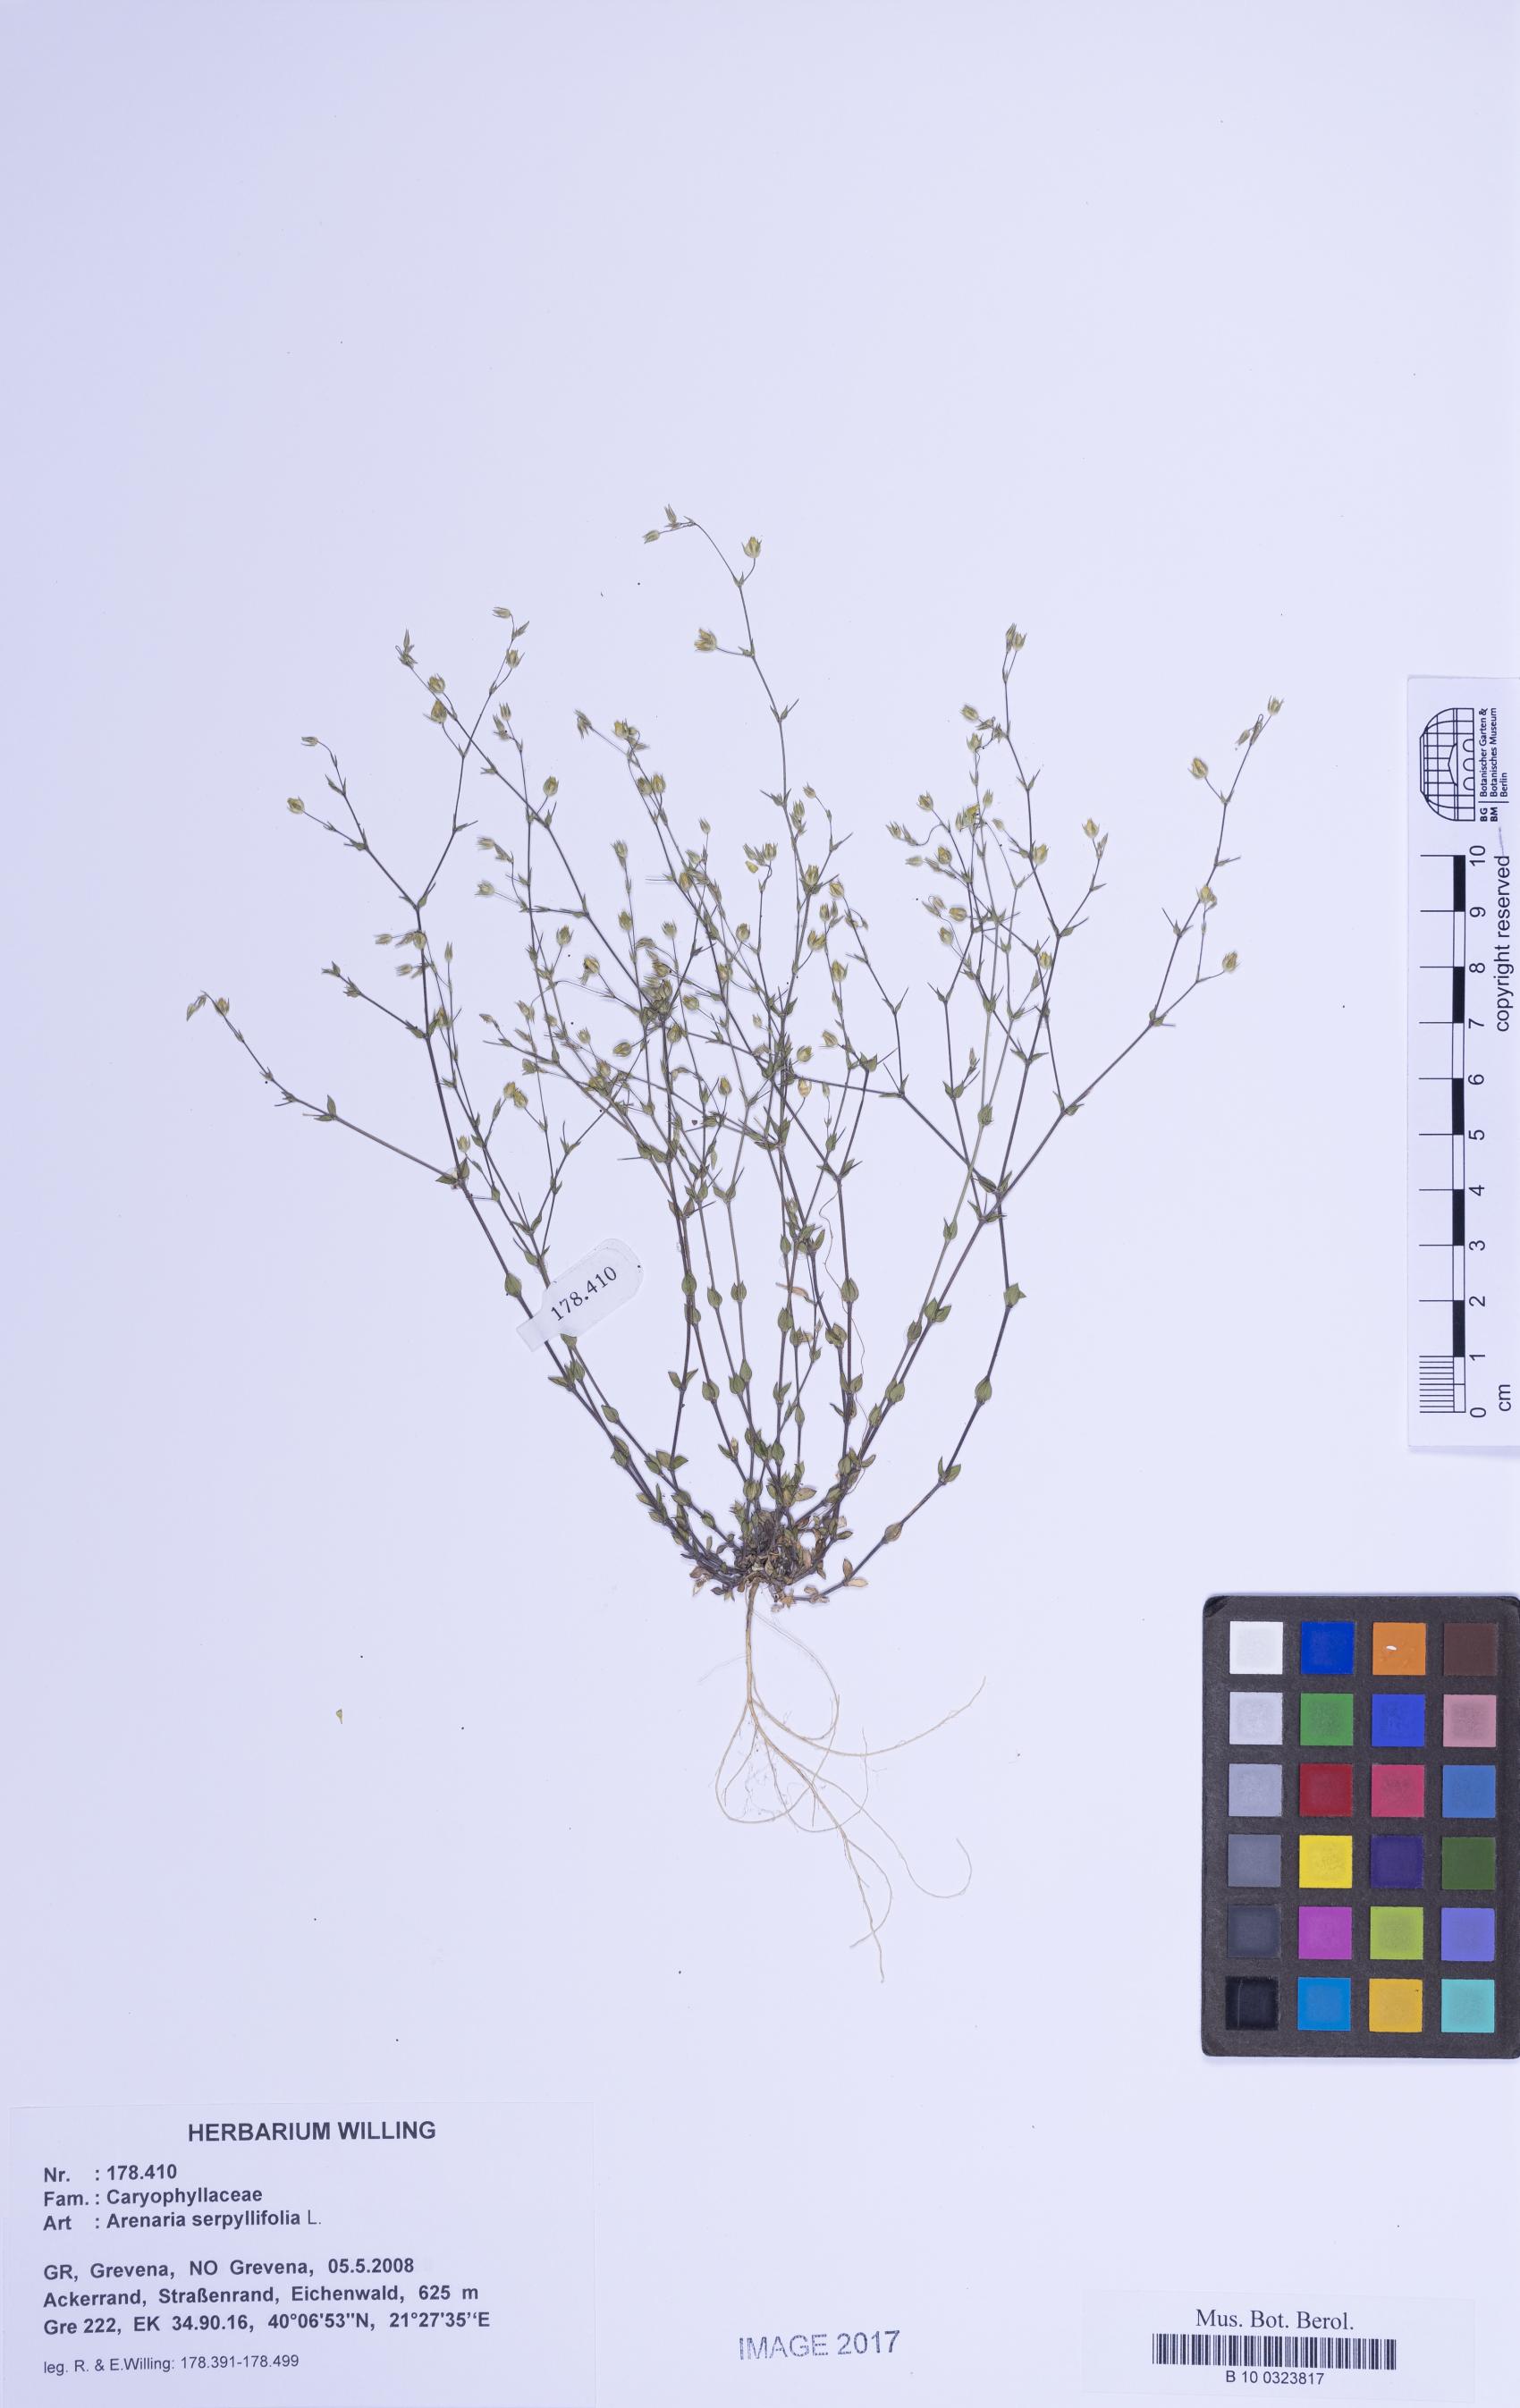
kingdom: Plantae
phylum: Tracheophyta
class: Magnoliopsida
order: Caryophyllales
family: Caryophyllaceae
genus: Arenaria
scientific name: Arenaria serpyllifolia
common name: Thyme-leaved sandwort
